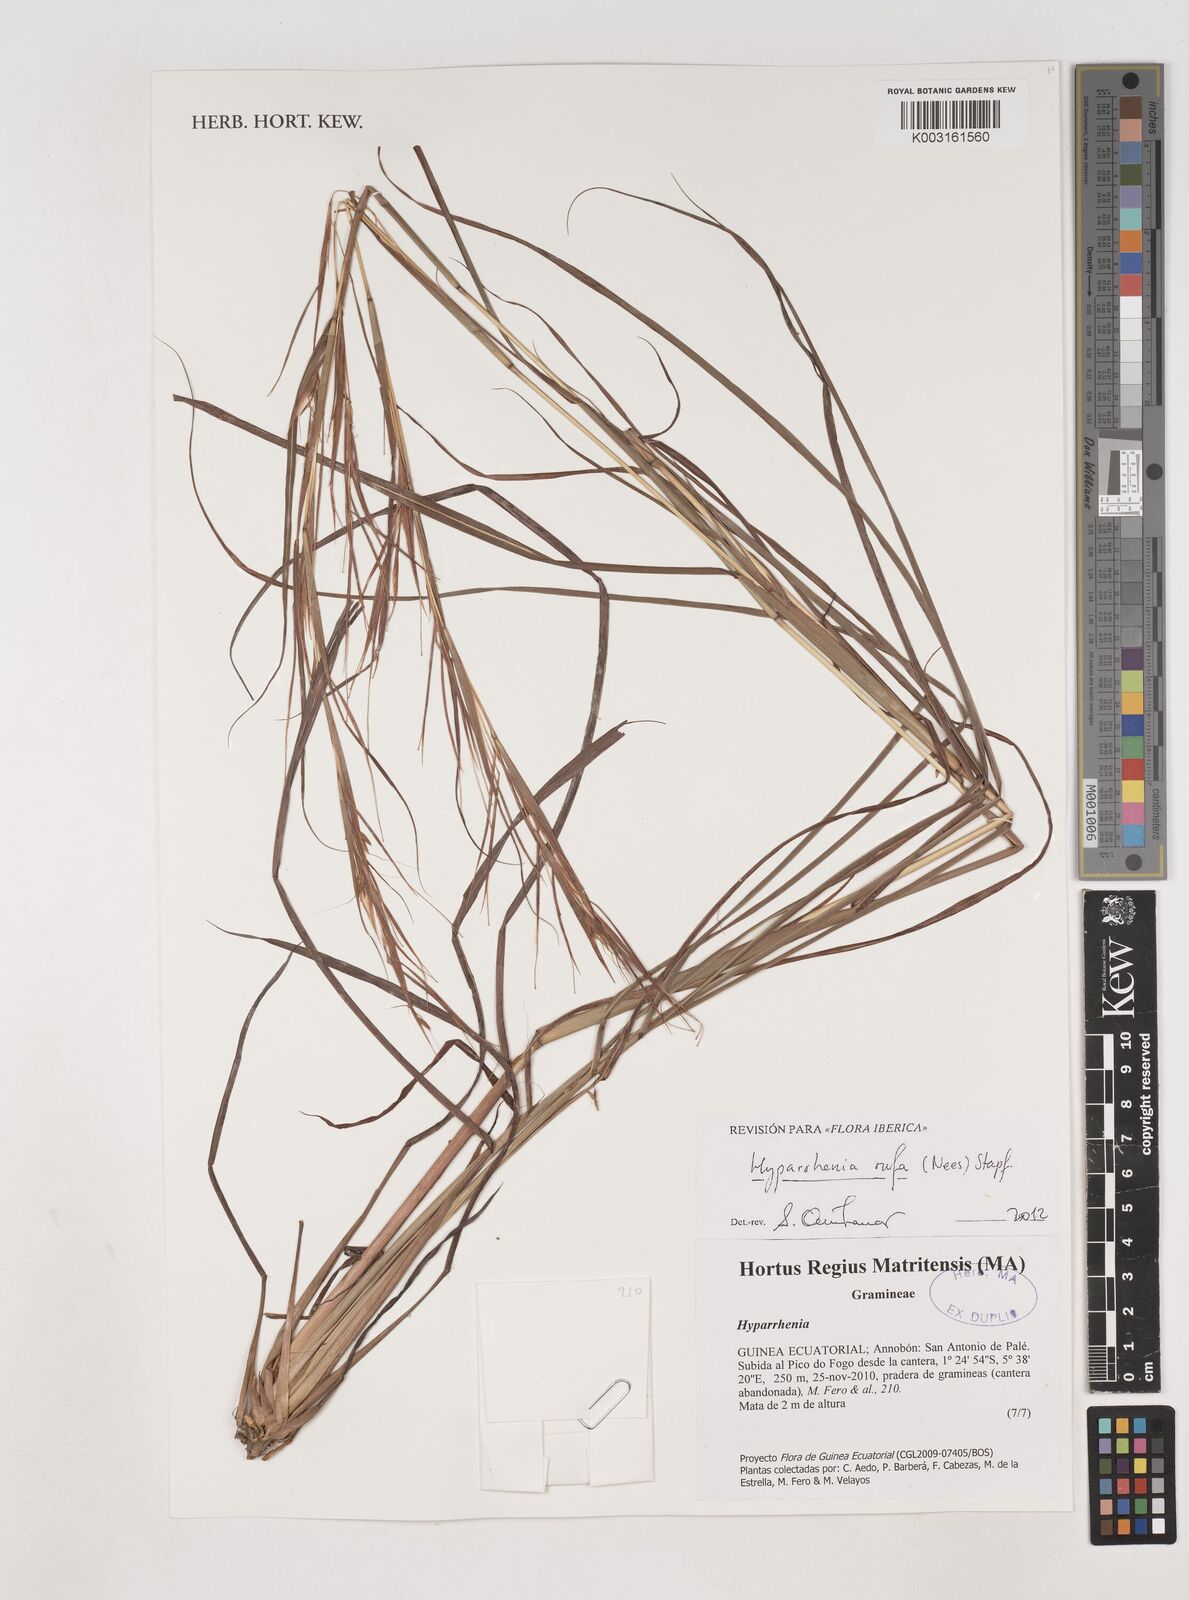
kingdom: Plantae
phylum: Tracheophyta
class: Liliopsida
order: Poales
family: Poaceae
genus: Hyparrhenia
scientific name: Hyparrhenia rufa
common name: Jaraguagrass
